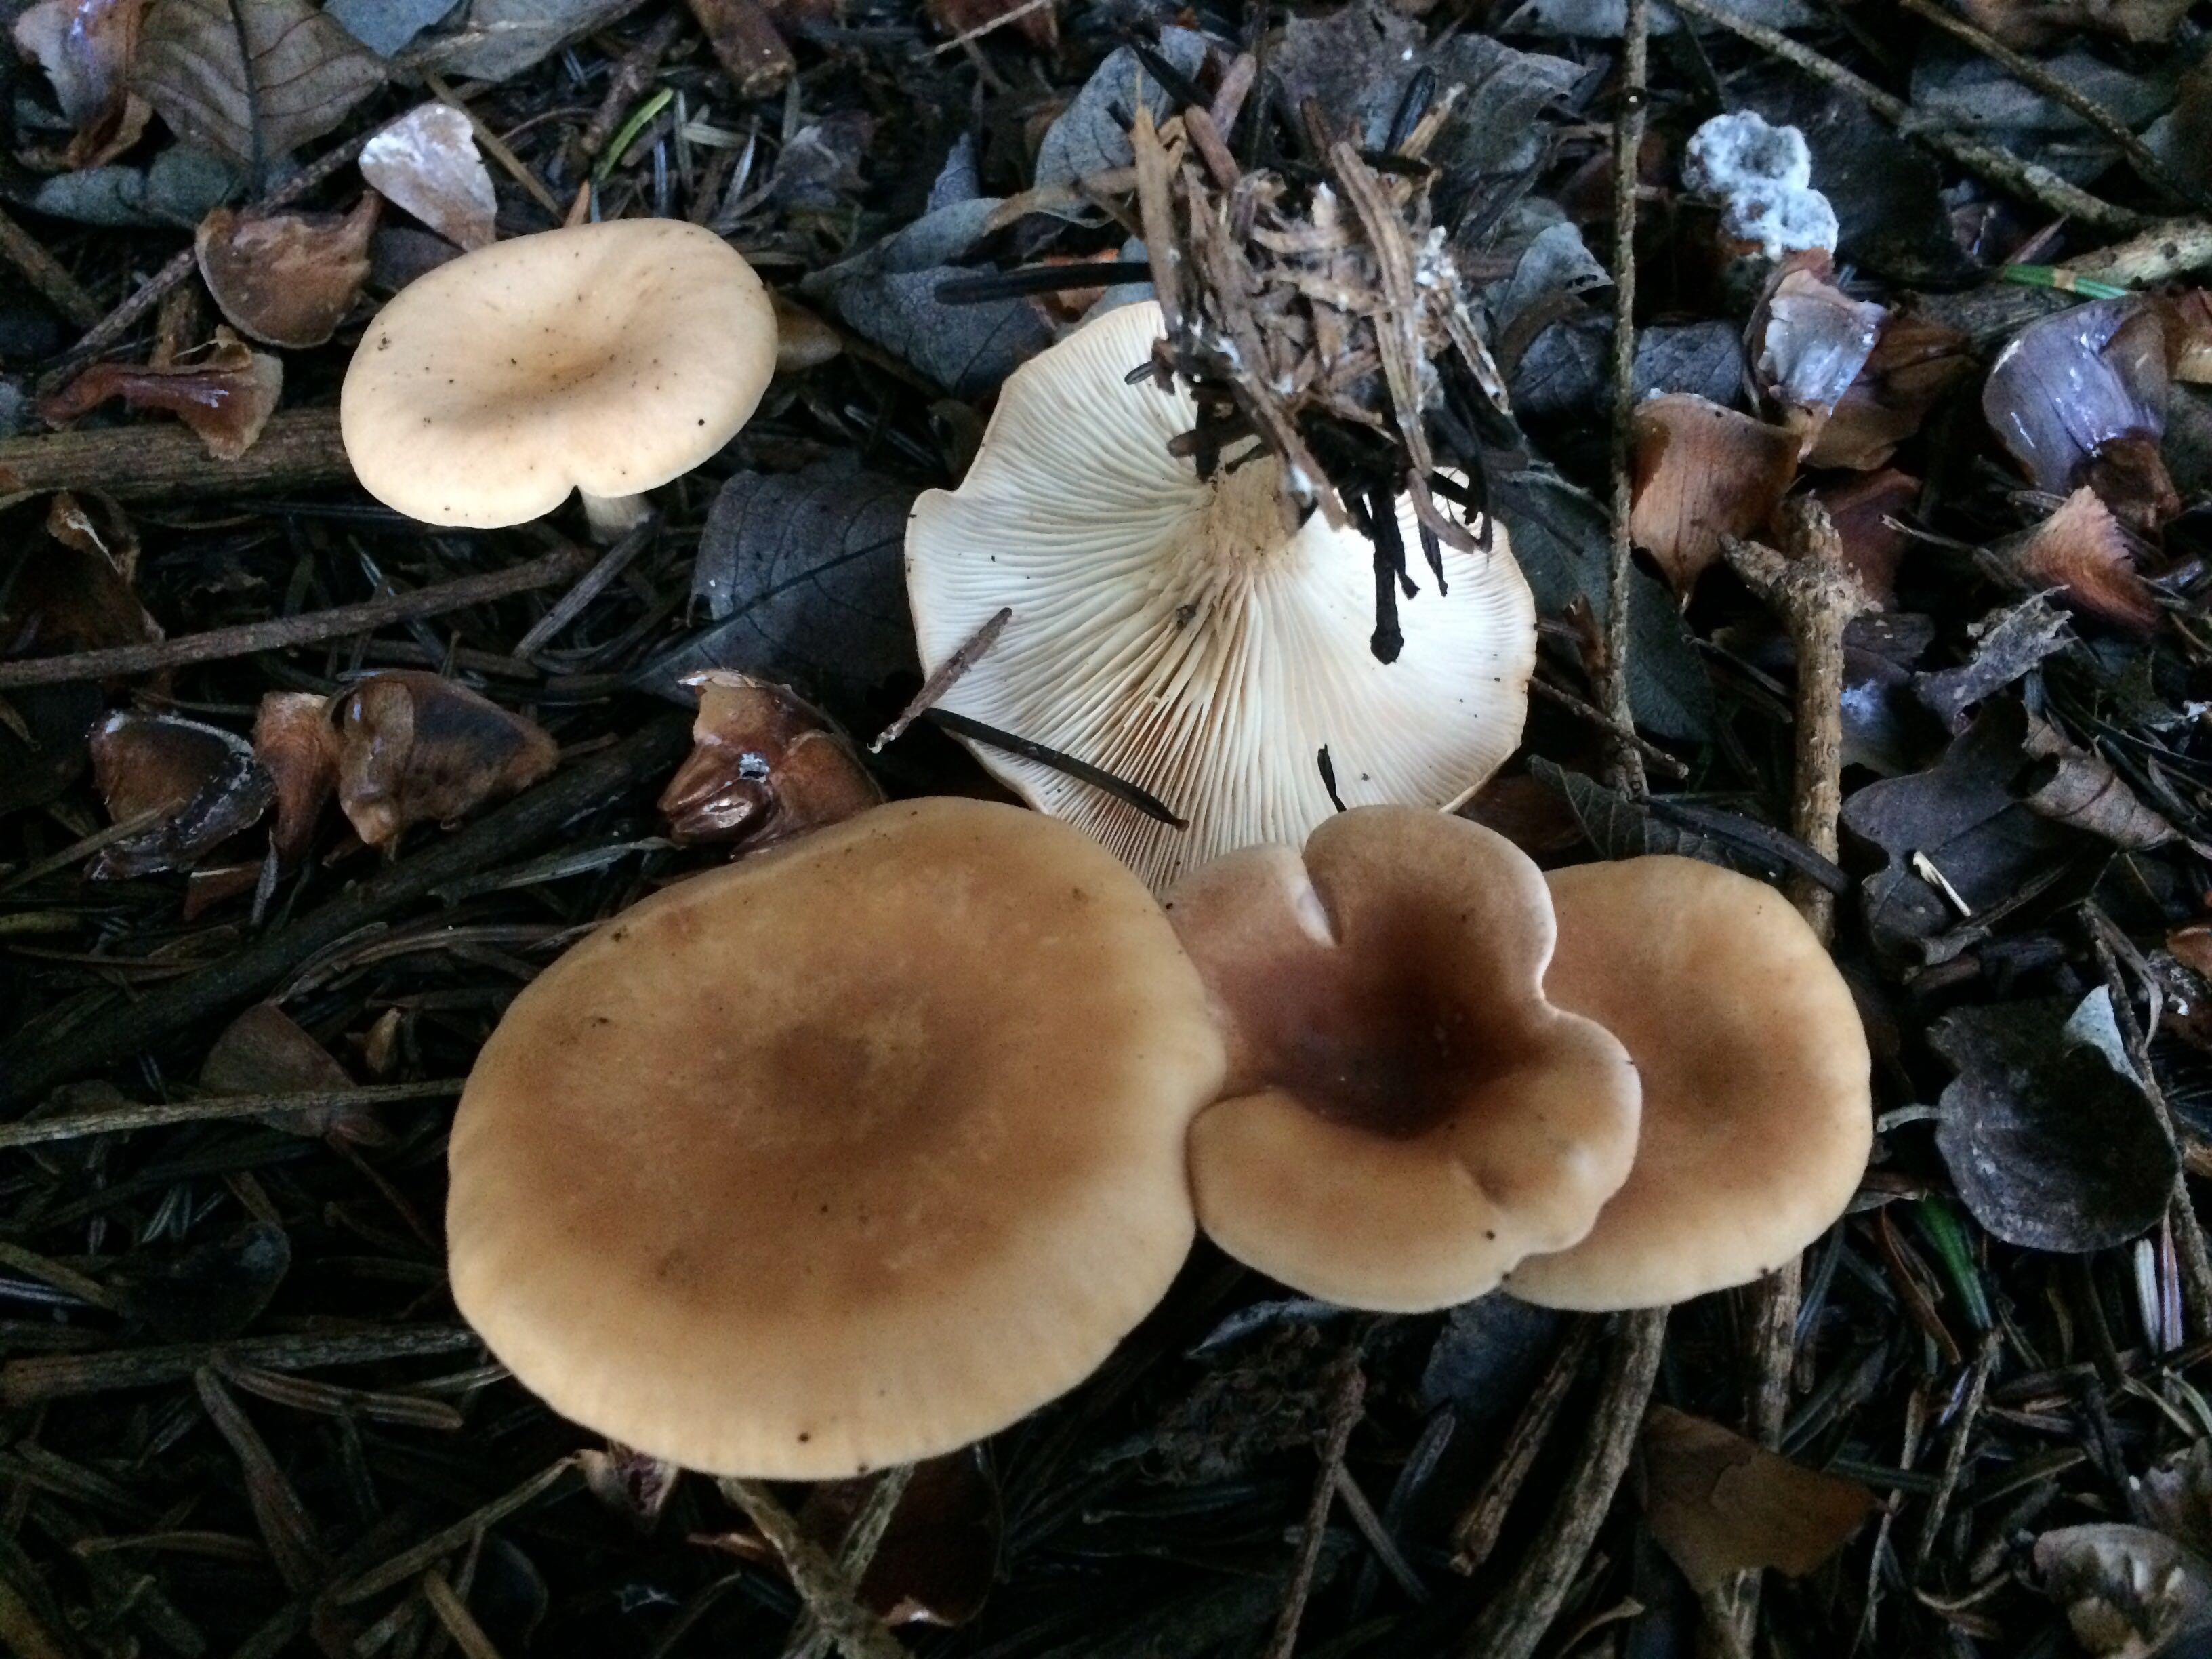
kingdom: Fungi
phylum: Basidiomycota
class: Agaricomycetes
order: Agaricales
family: Tricholomataceae
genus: Paralepista
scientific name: Paralepista flaccida
